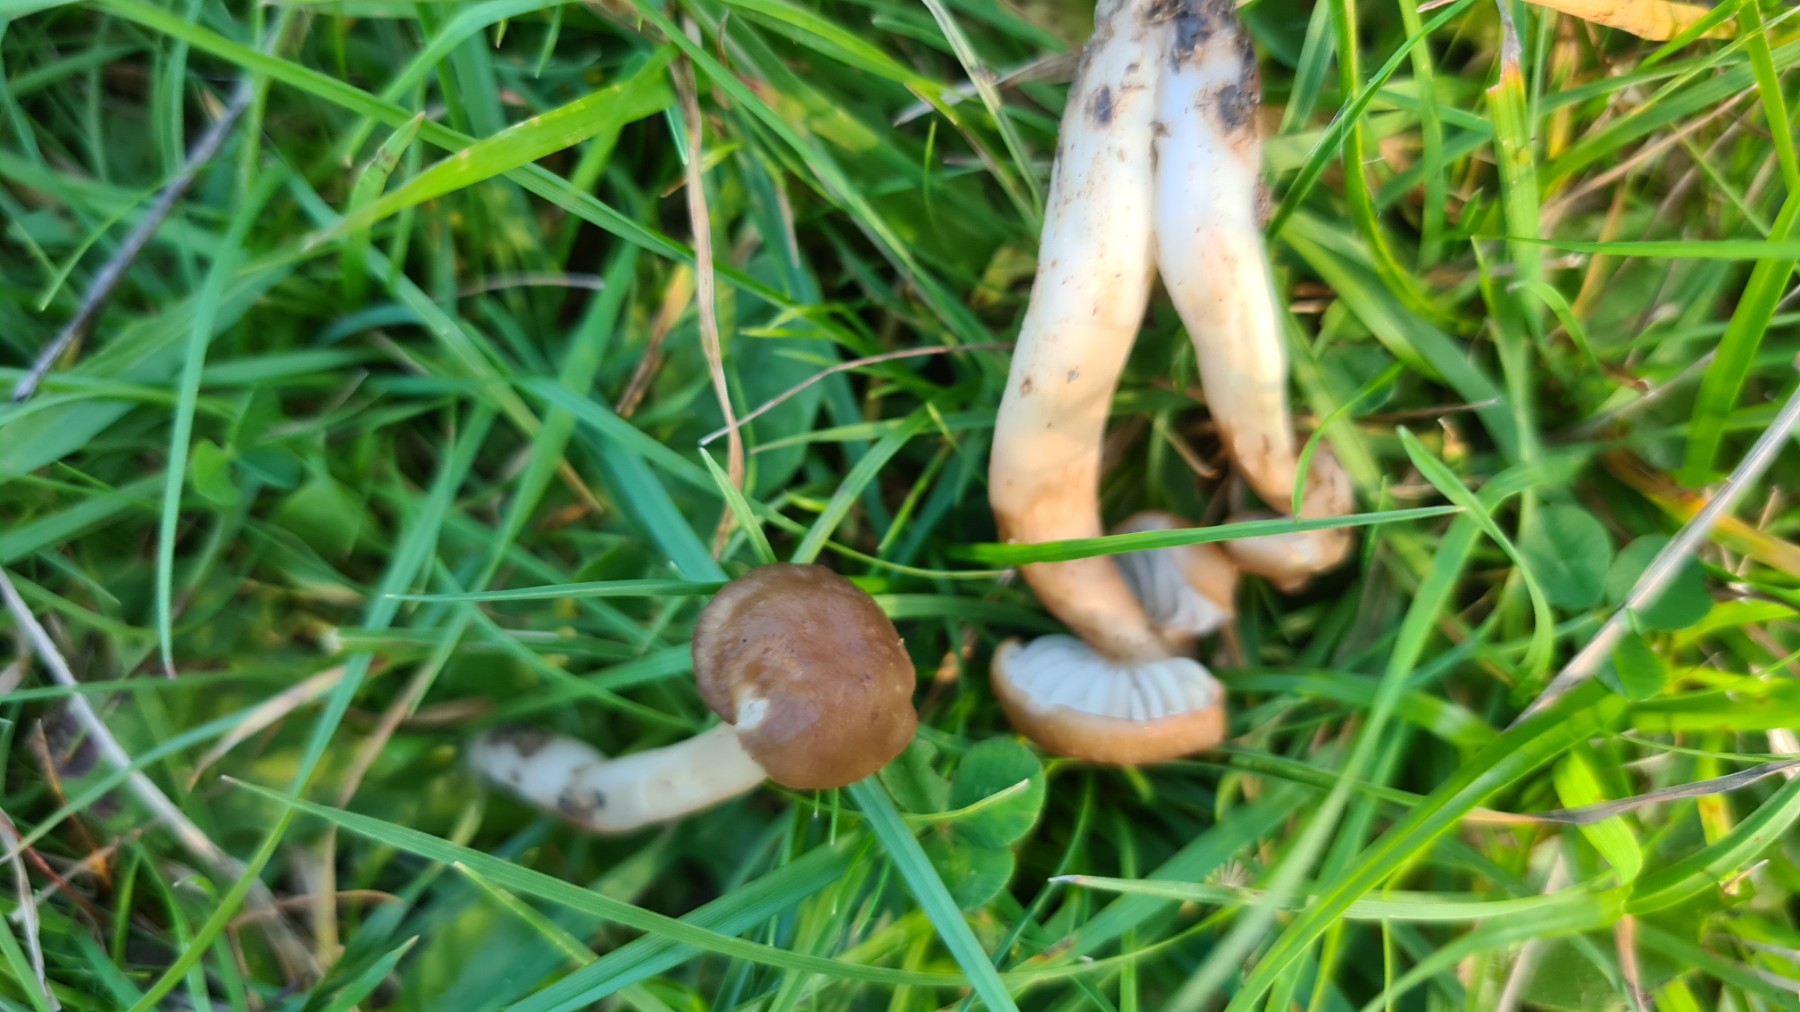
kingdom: Fungi
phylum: Basidiomycota
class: Agaricomycetes
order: Agaricales
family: Hygrophoraceae
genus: Hygrocybe
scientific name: Hygrocybe ingrata
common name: Jensens vokshat
